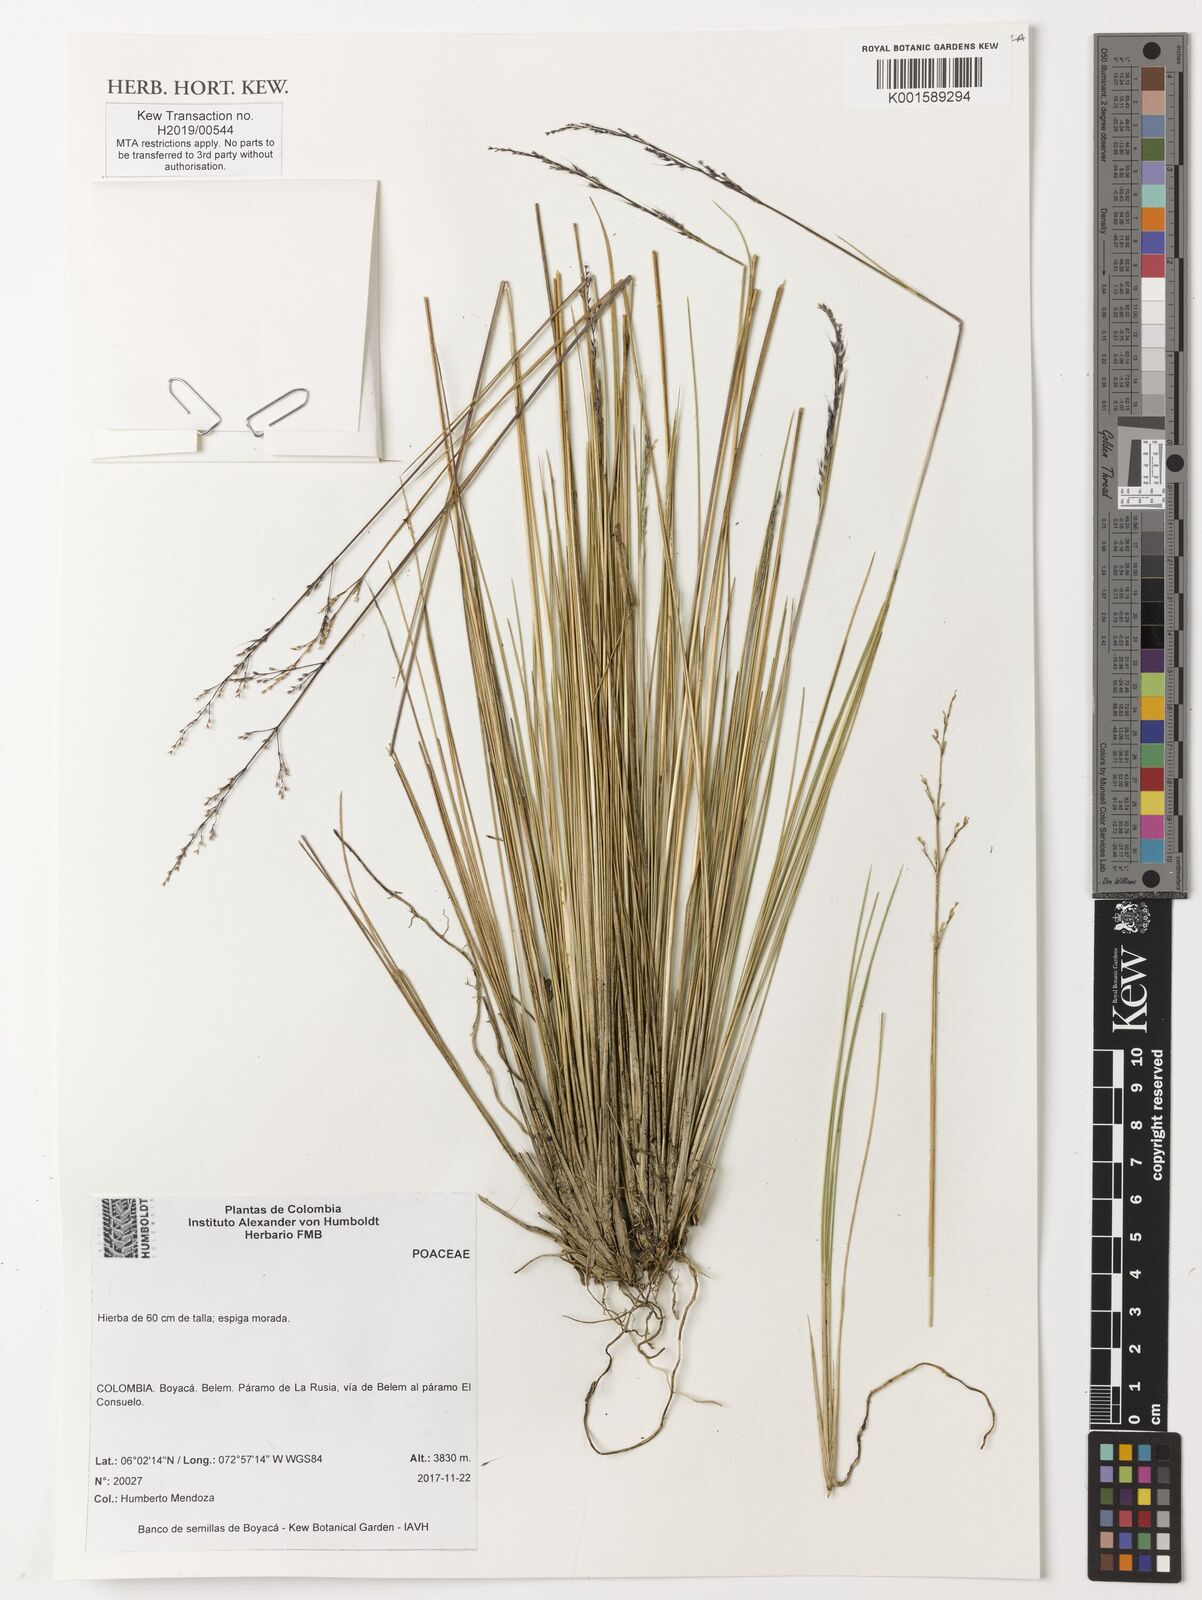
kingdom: Plantae
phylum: Tracheophyta
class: Liliopsida
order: Poales
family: Poaceae
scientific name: Poaceae
